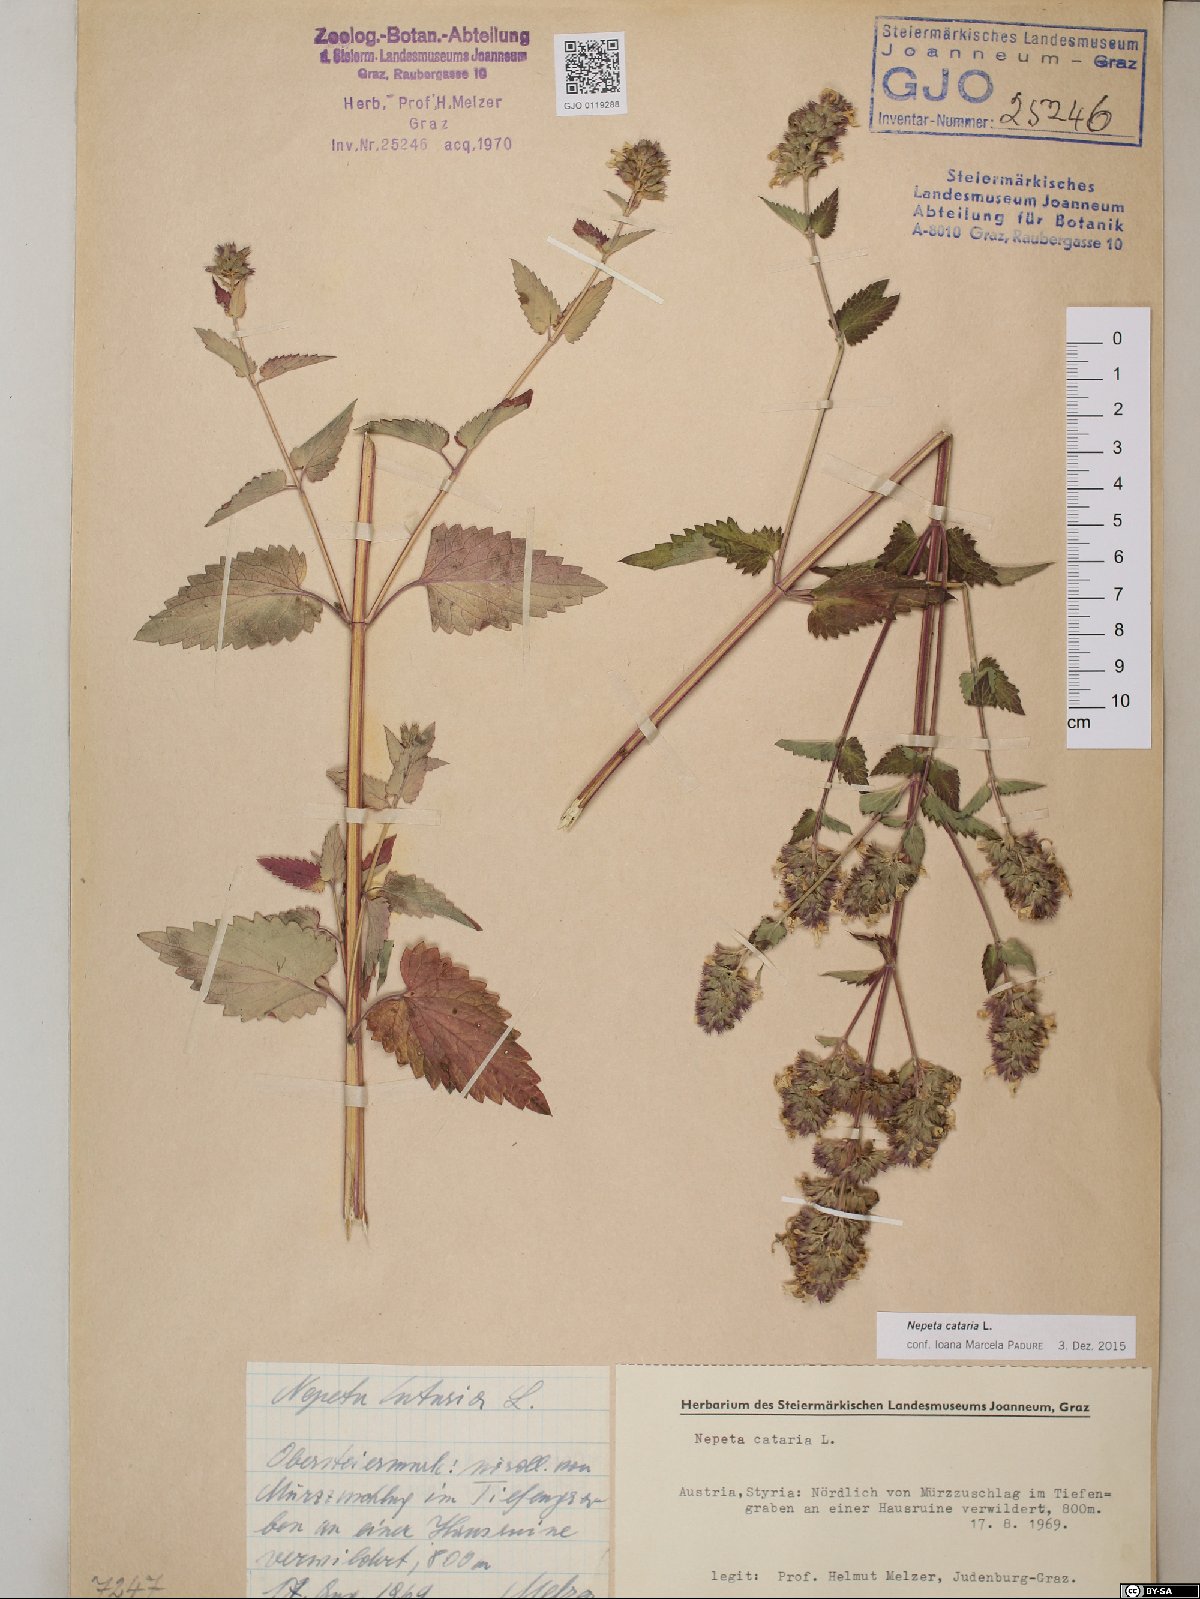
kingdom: Plantae
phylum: Tracheophyta
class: Magnoliopsida
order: Lamiales
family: Lamiaceae
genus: Nepeta
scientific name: Nepeta cataria
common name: Catnip
